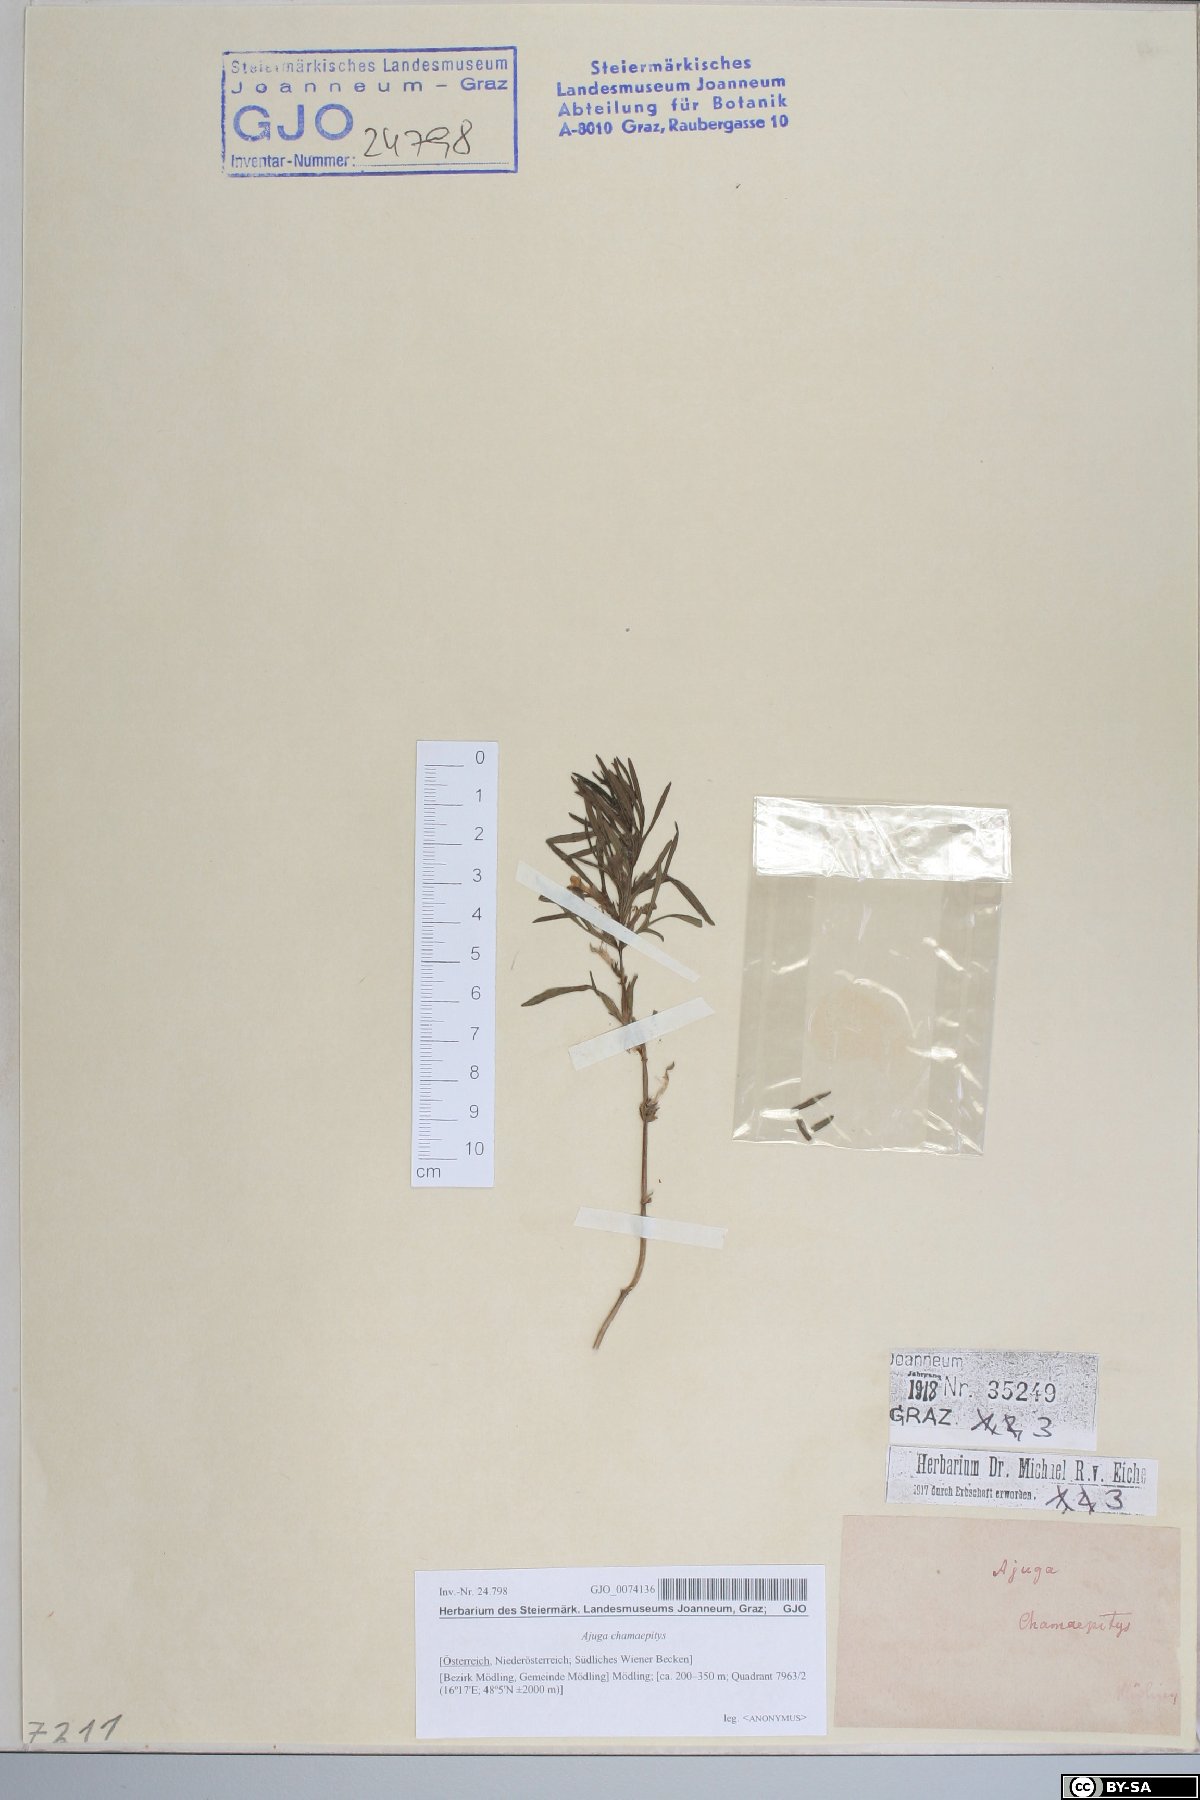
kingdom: Plantae
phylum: Tracheophyta
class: Magnoliopsida
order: Lamiales
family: Lamiaceae
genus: Ajuga
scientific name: Ajuga chamaepitys
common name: Ground-pine
